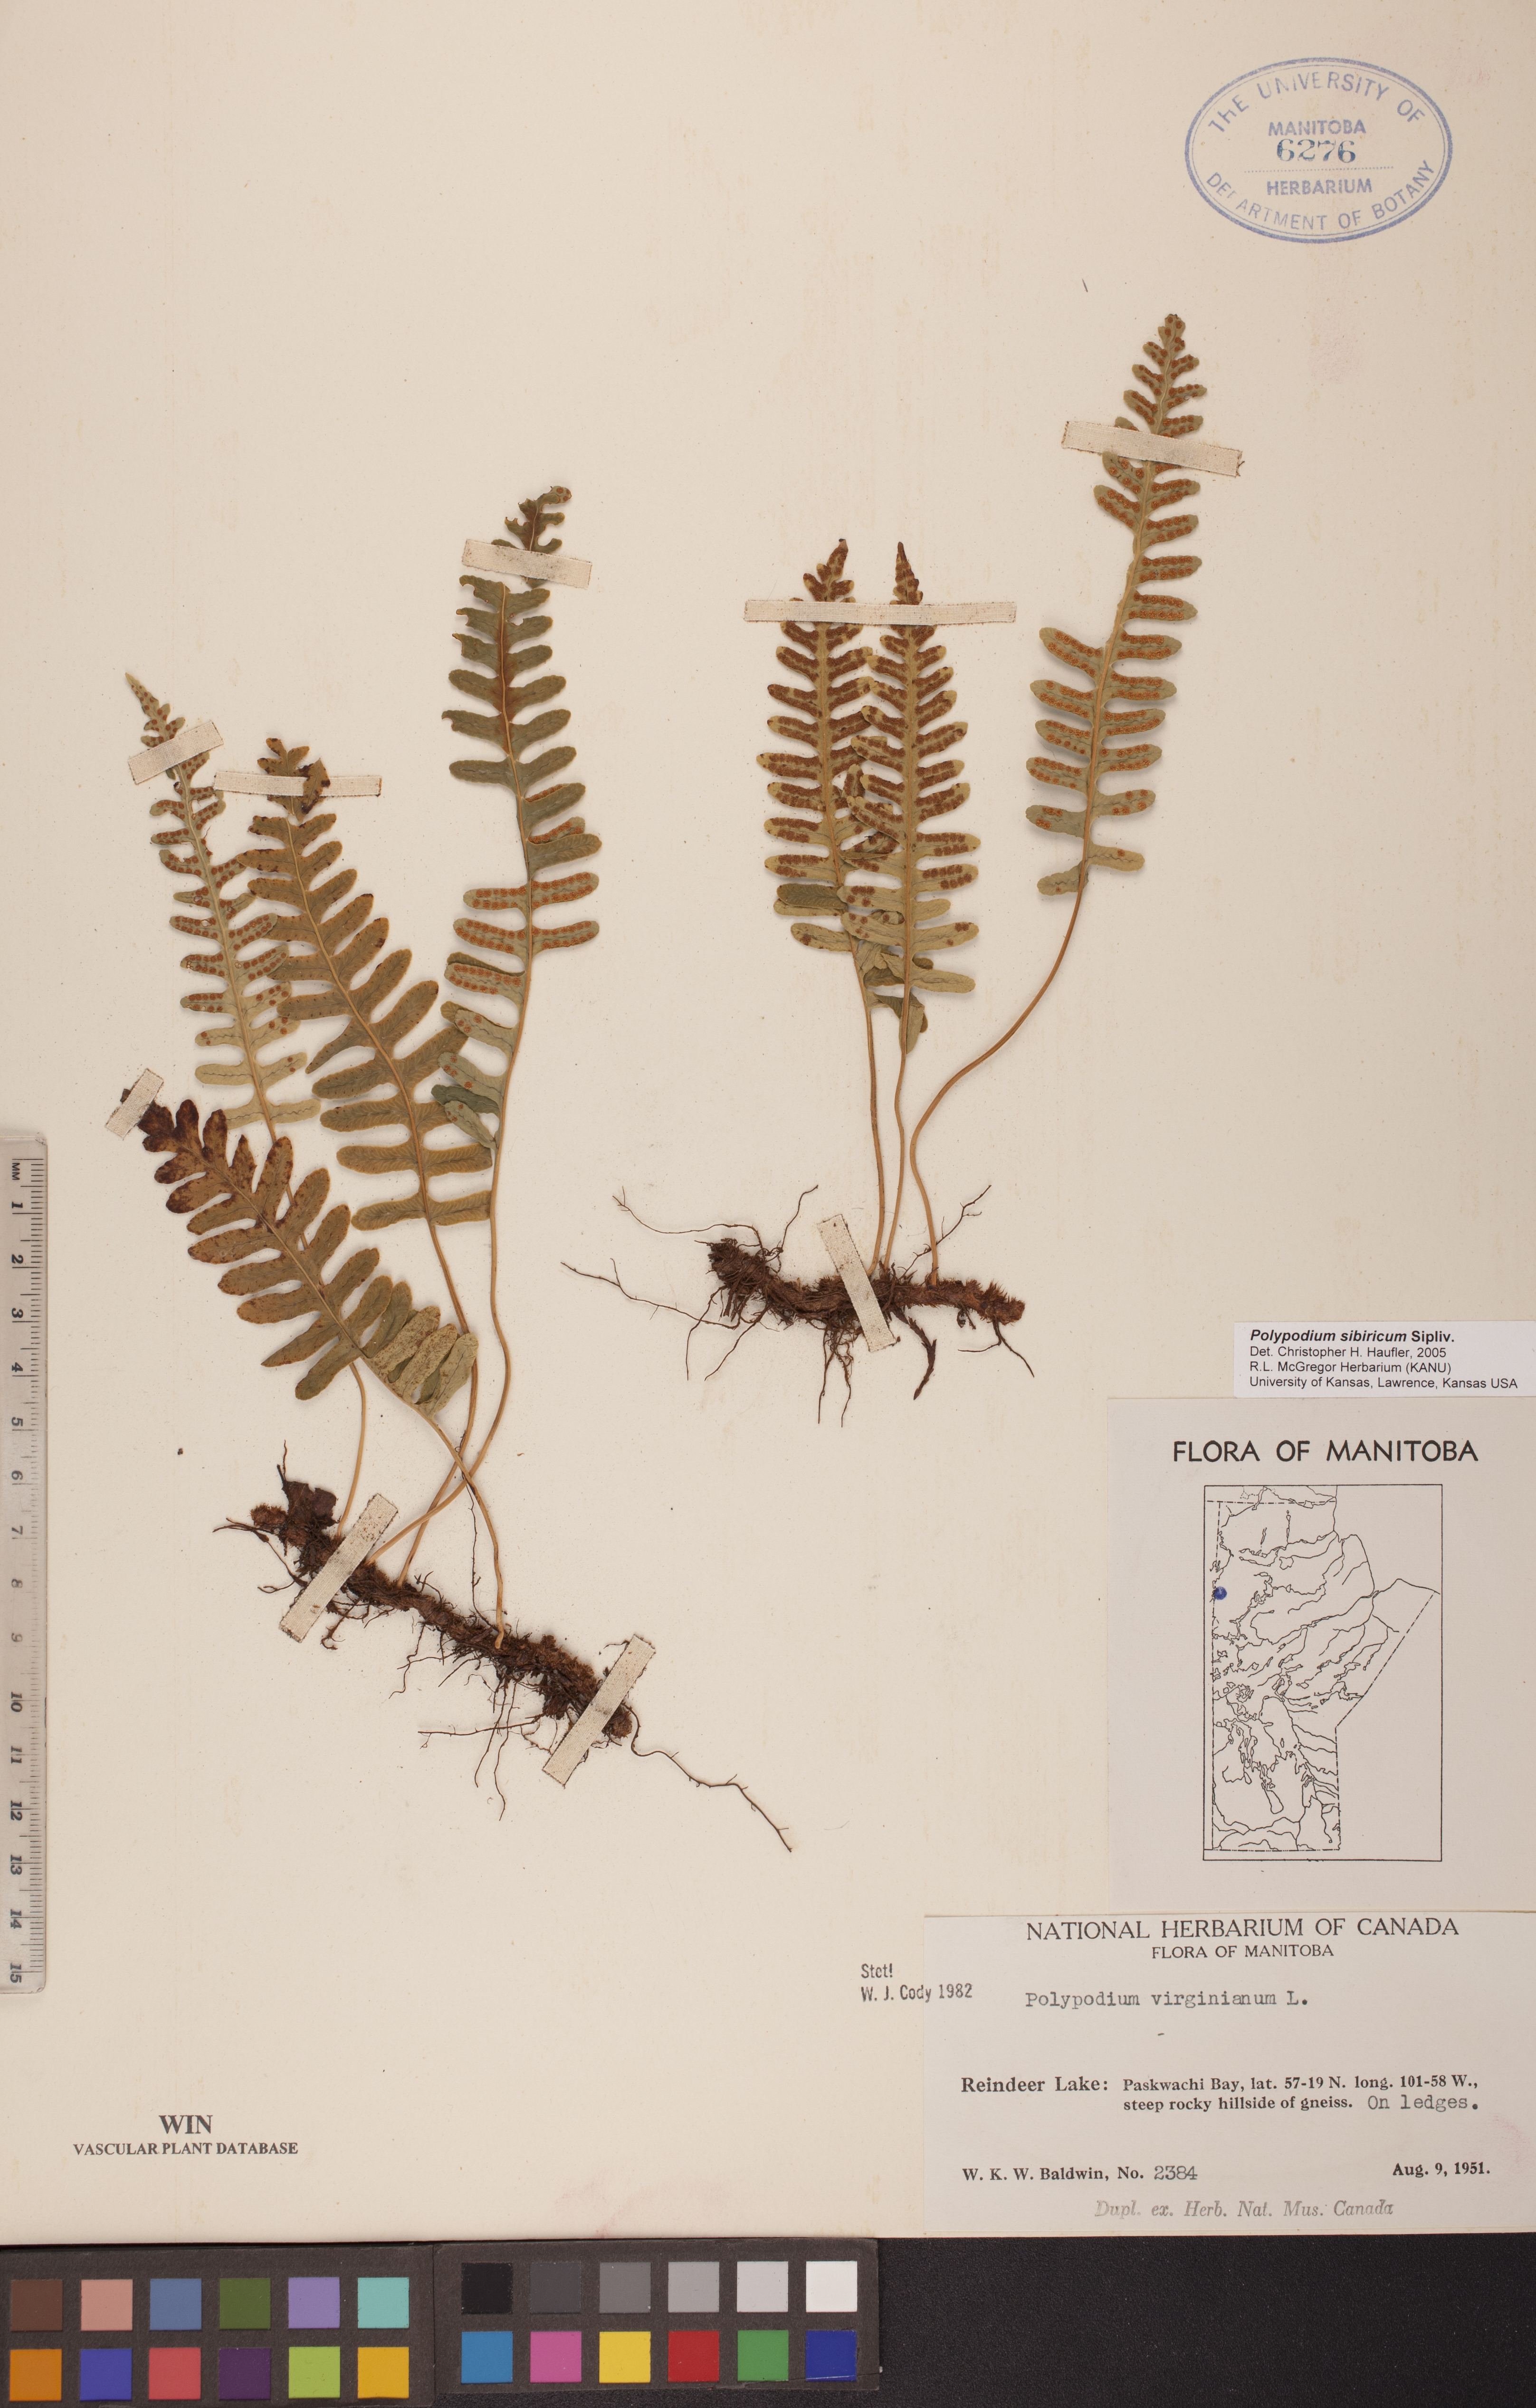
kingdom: Plantae
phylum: Tracheophyta
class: Polypodiopsida
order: Polypodiales
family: Polypodiaceae
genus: Polypodium
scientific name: Polypodium sibiricum
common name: Siberian polypody
